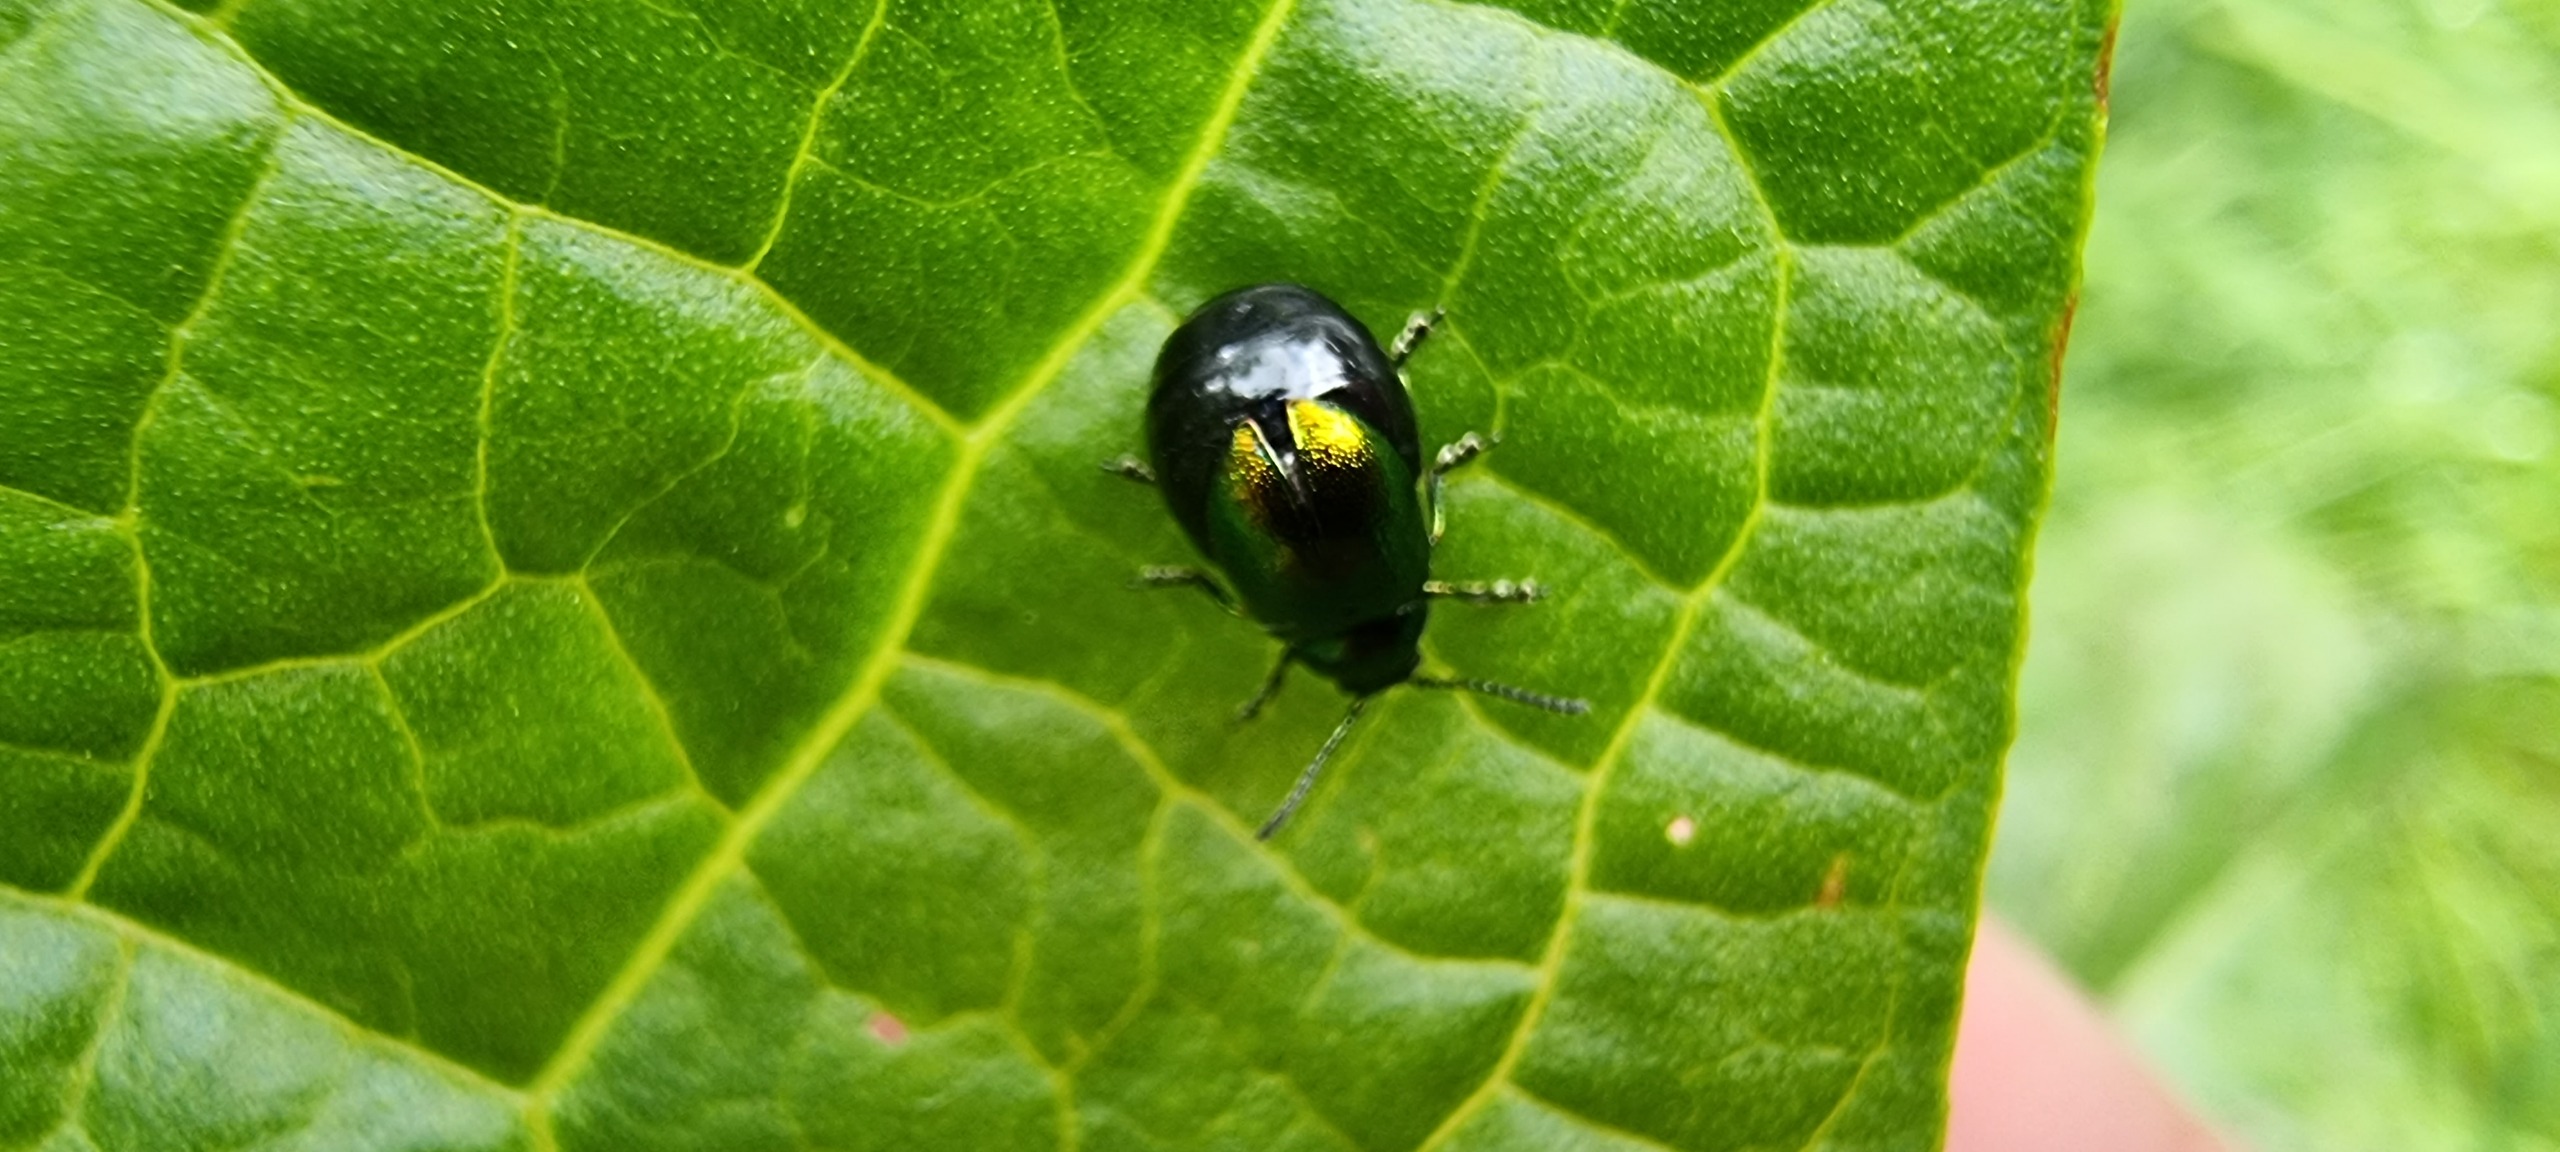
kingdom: Animalia
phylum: Arthropoda
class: Insecta
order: Coleoptera
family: Chrysomelidae
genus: Gastrophysa
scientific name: Gastrophysa viridula
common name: Skræppebladbille
